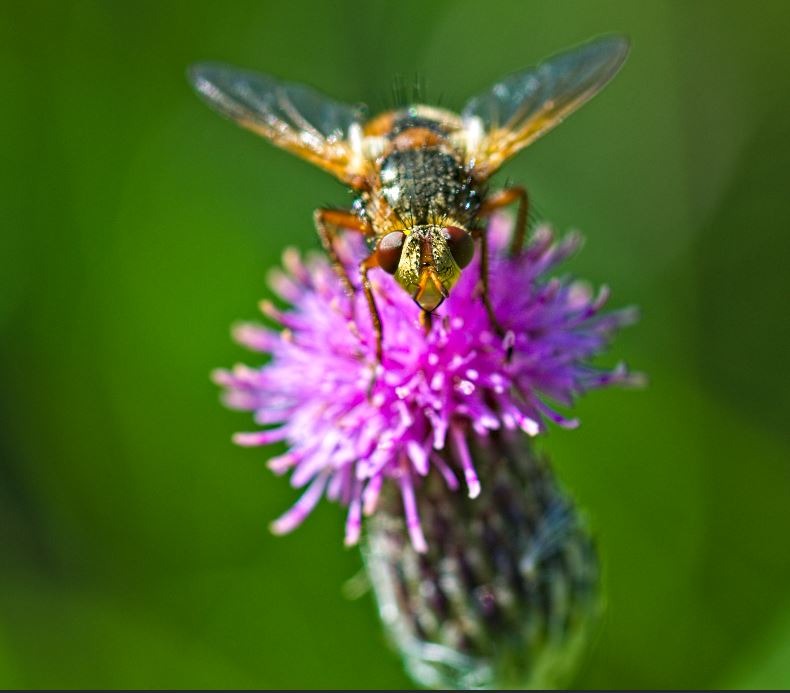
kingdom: Animalia
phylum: Arthropoda
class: Insecta
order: Diptera
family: Tachinidae
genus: Tachina
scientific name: Tachina fera
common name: Mellemfluen oskar
